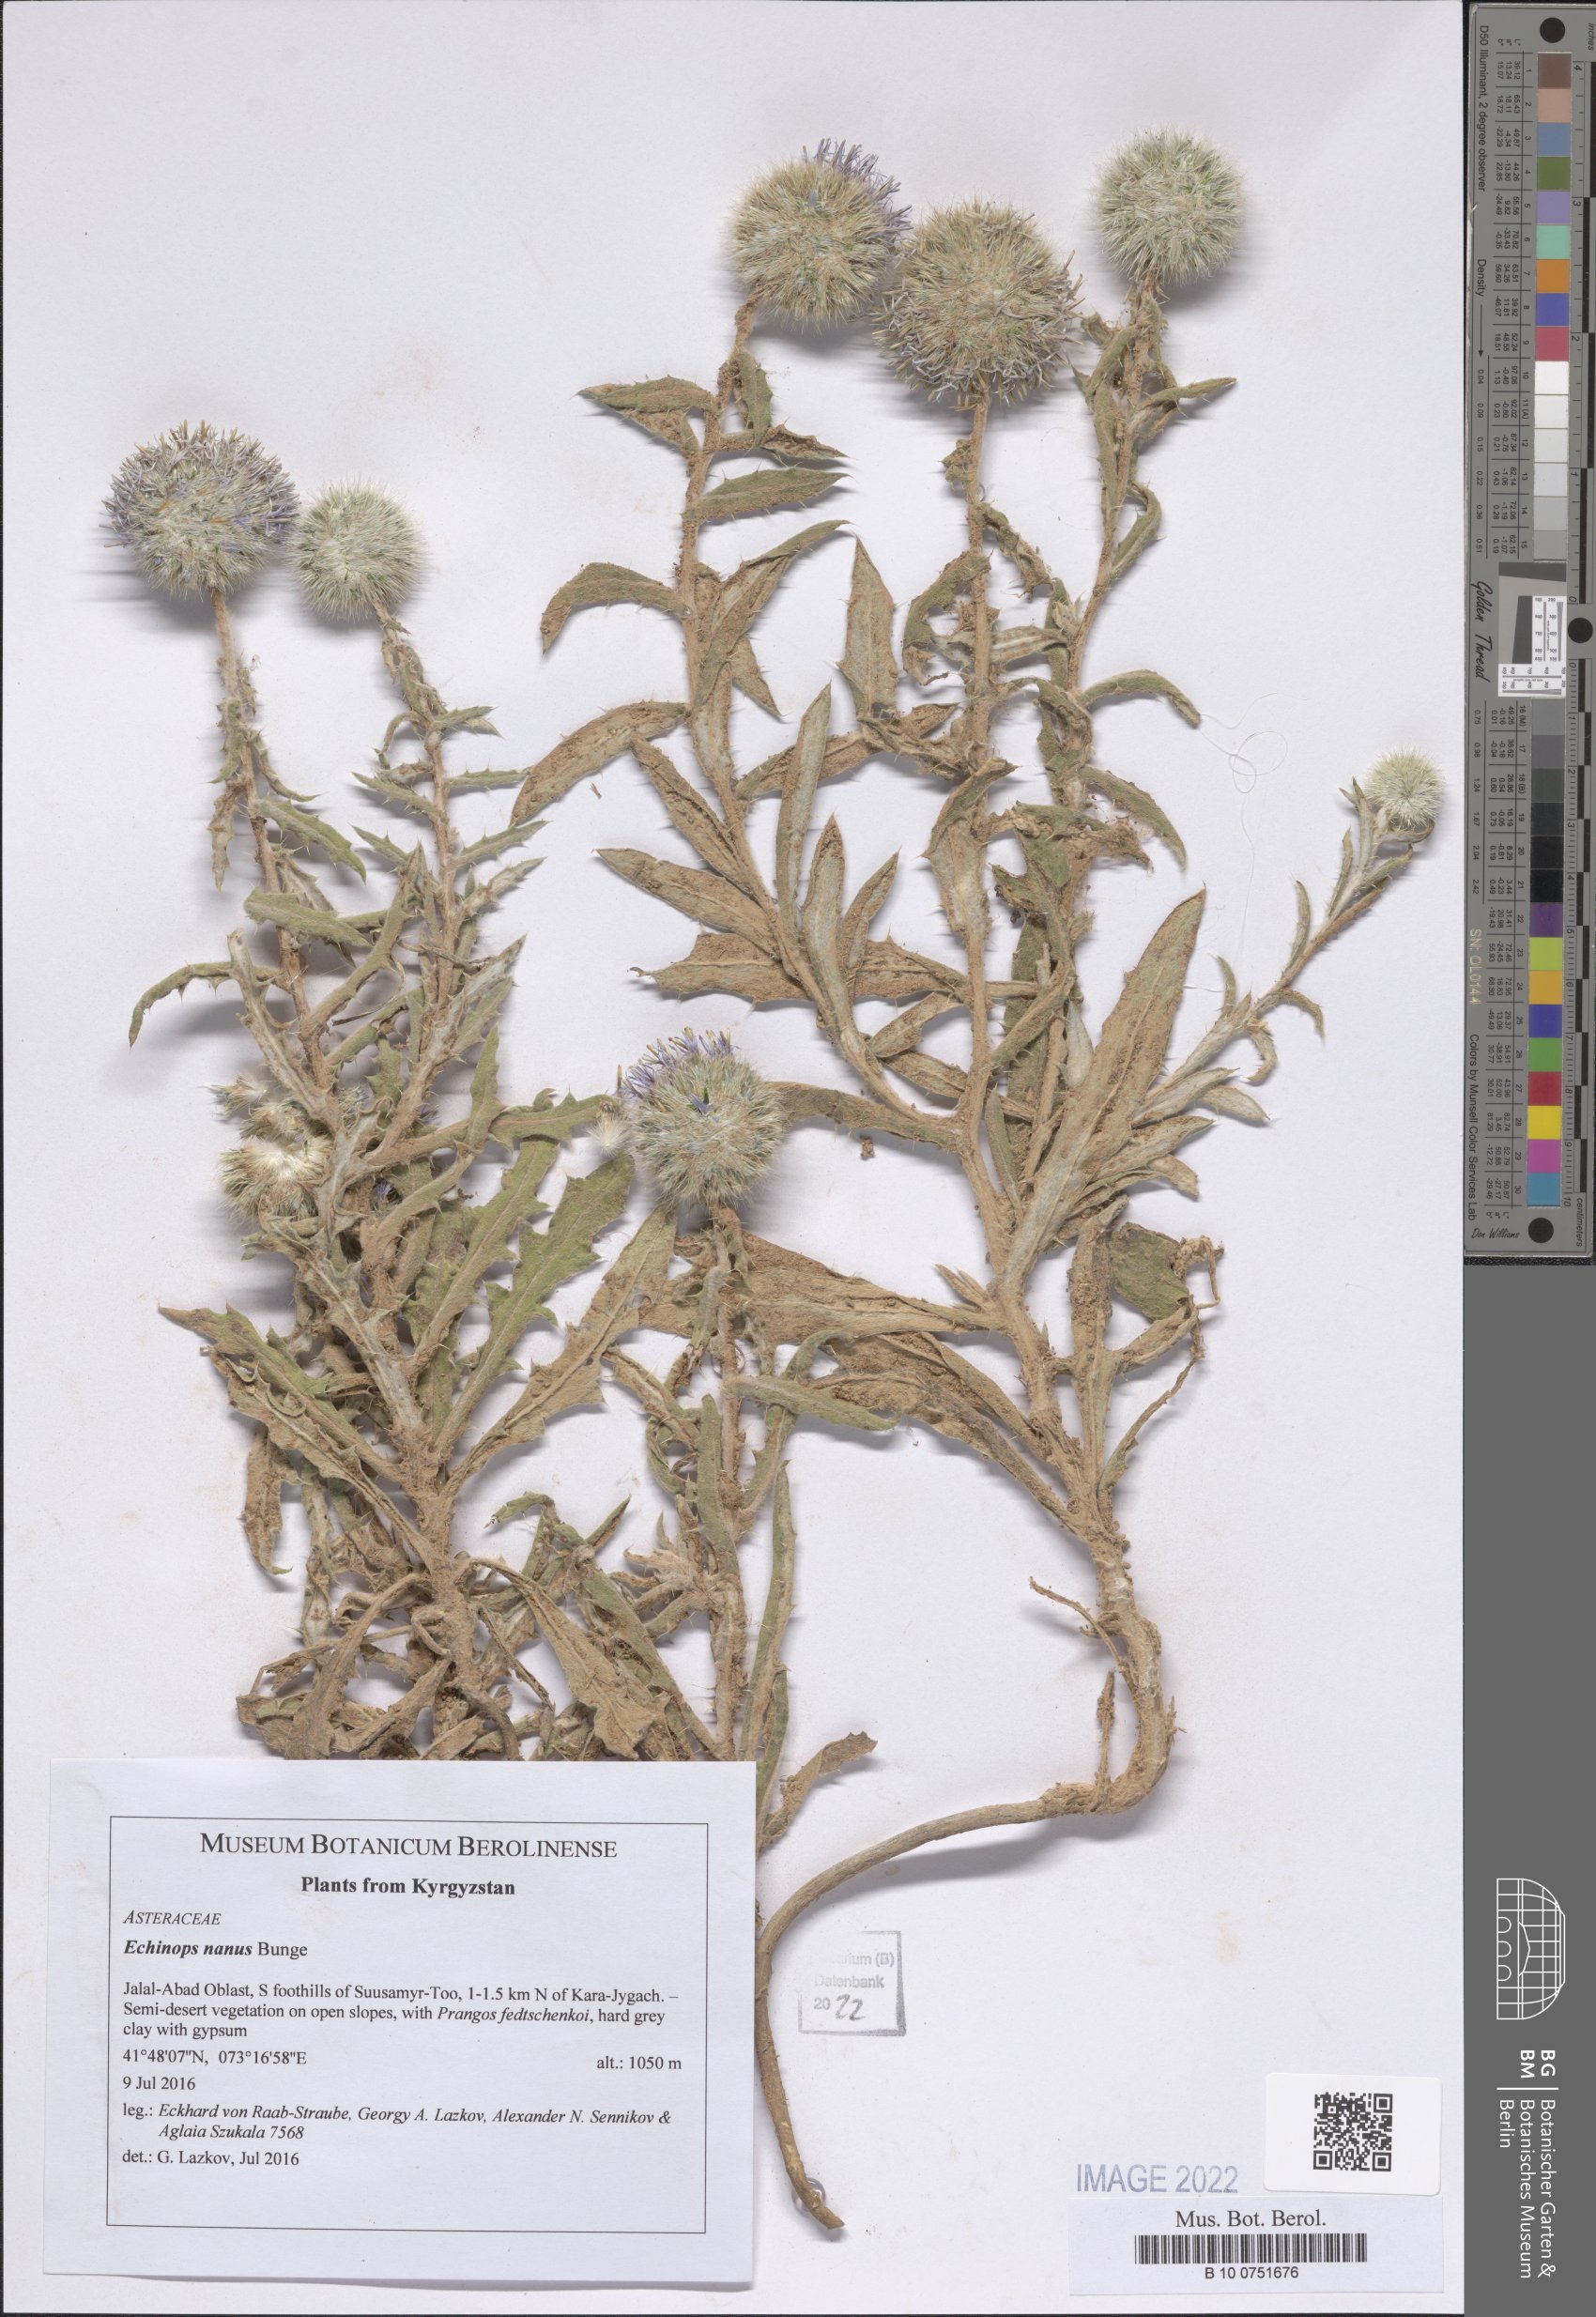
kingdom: Plantae
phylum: Tracheophyta
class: Magnoliopsida
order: Asterales
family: Asteraceae
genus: Echinops
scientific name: Echinops nanus
